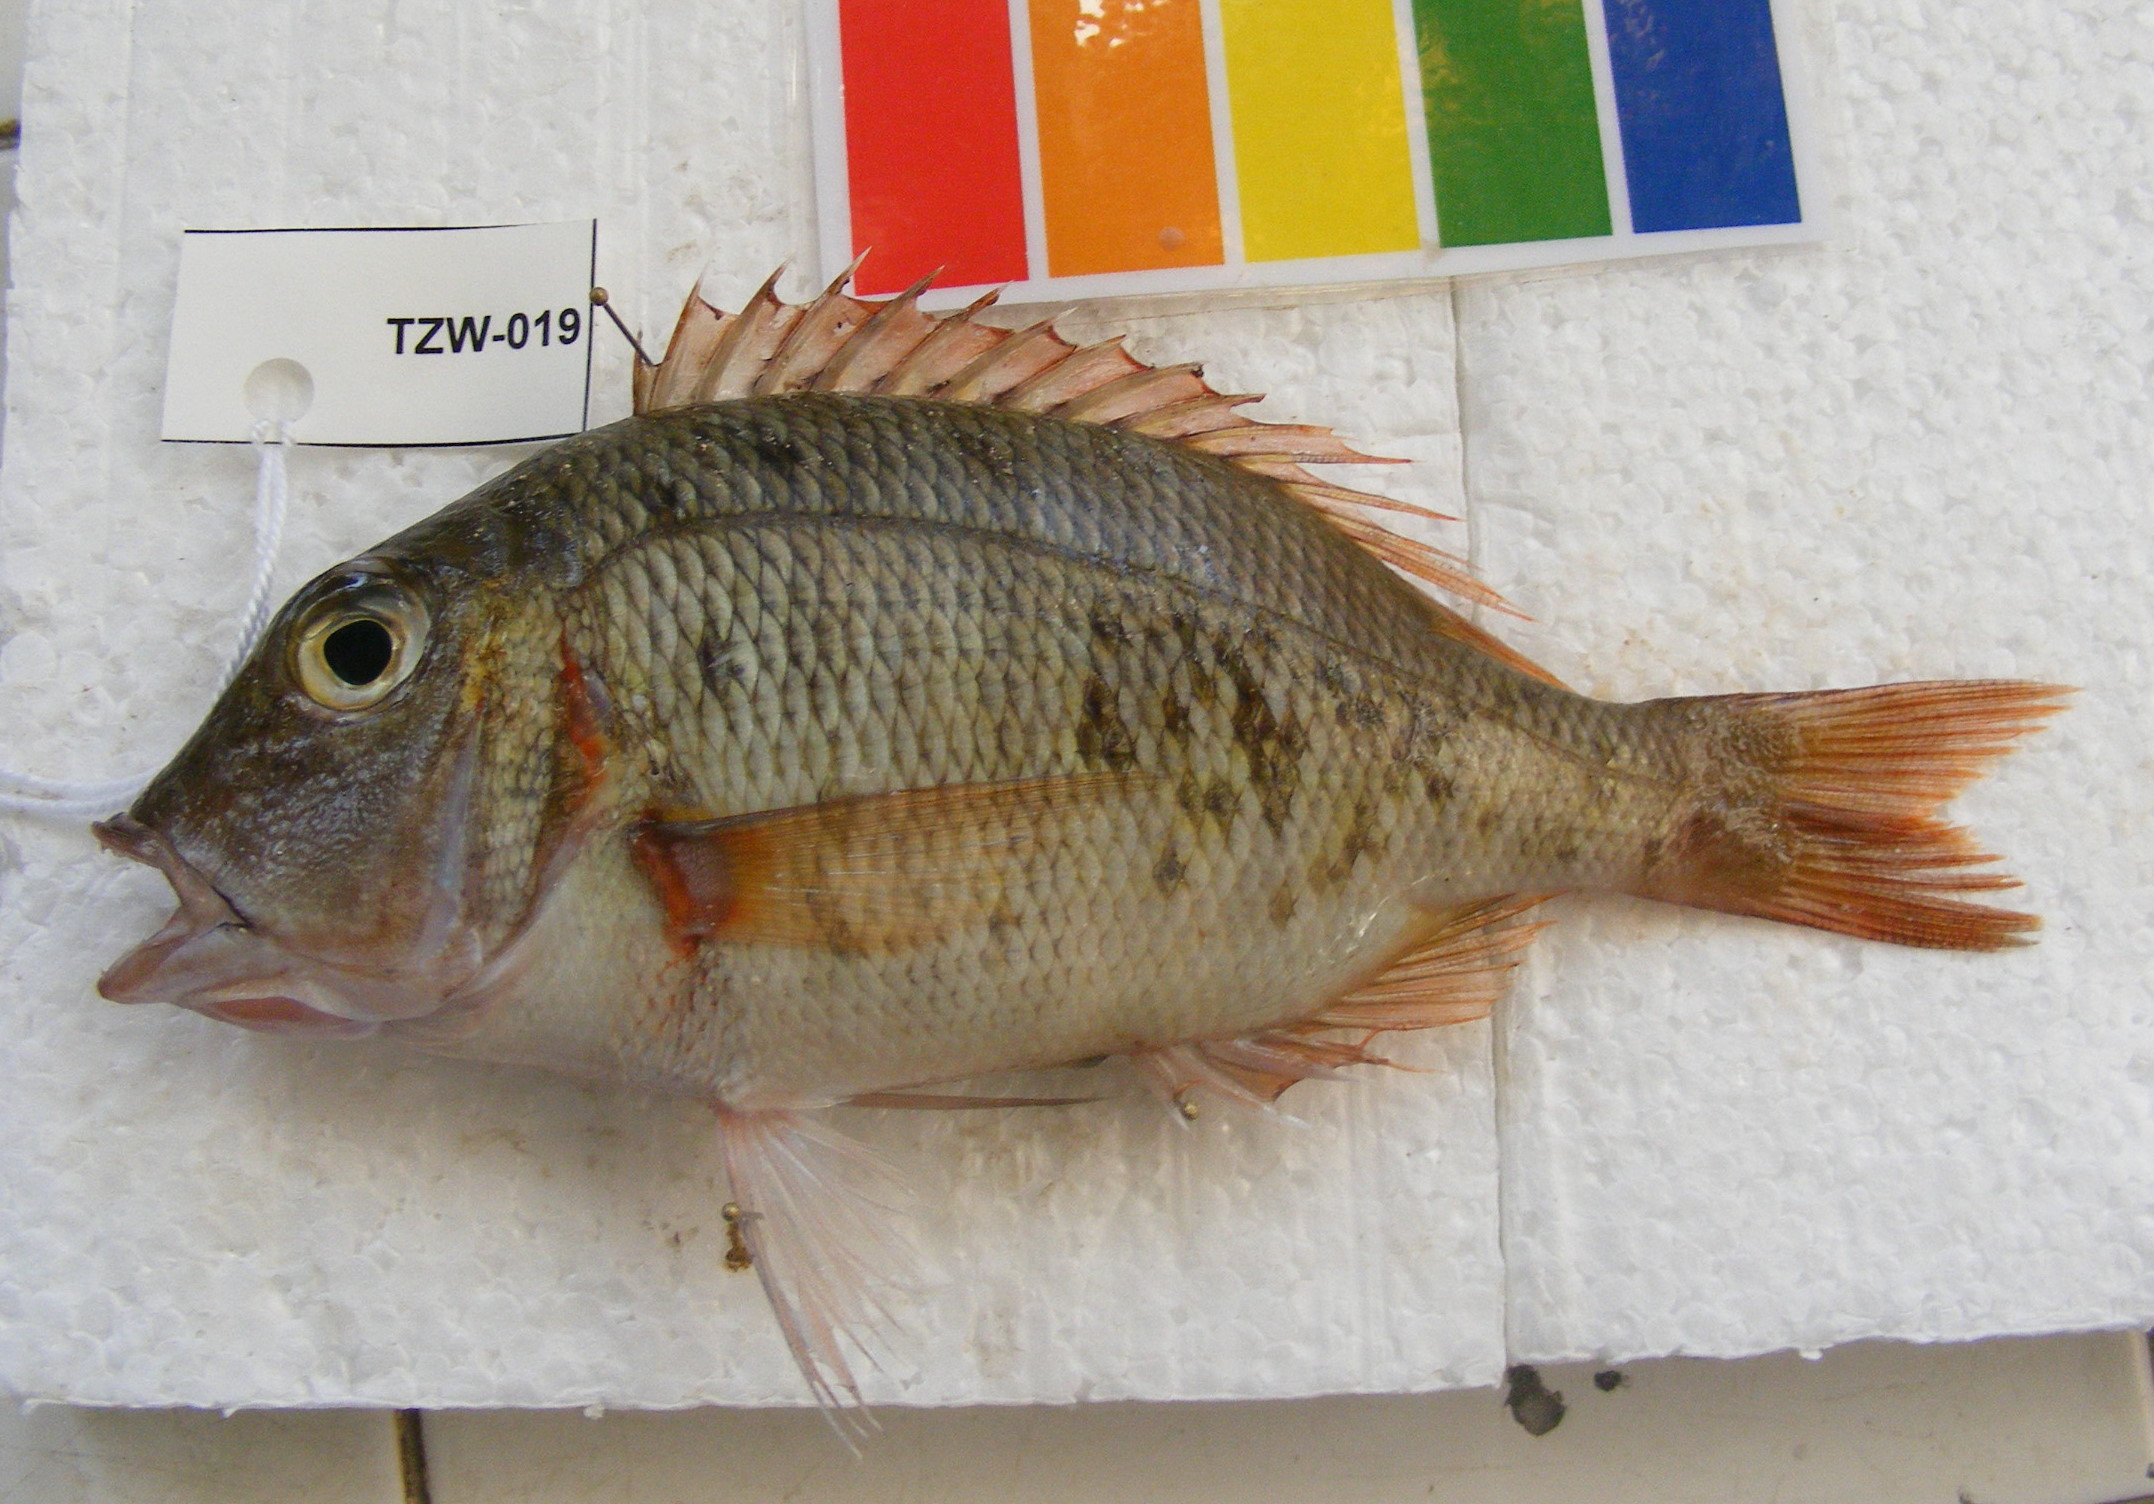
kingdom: Animalia
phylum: Chordata
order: Perciformes
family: Lethrinidae
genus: Lethrinus
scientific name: Lethrinus mahsena
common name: Sky emperor
